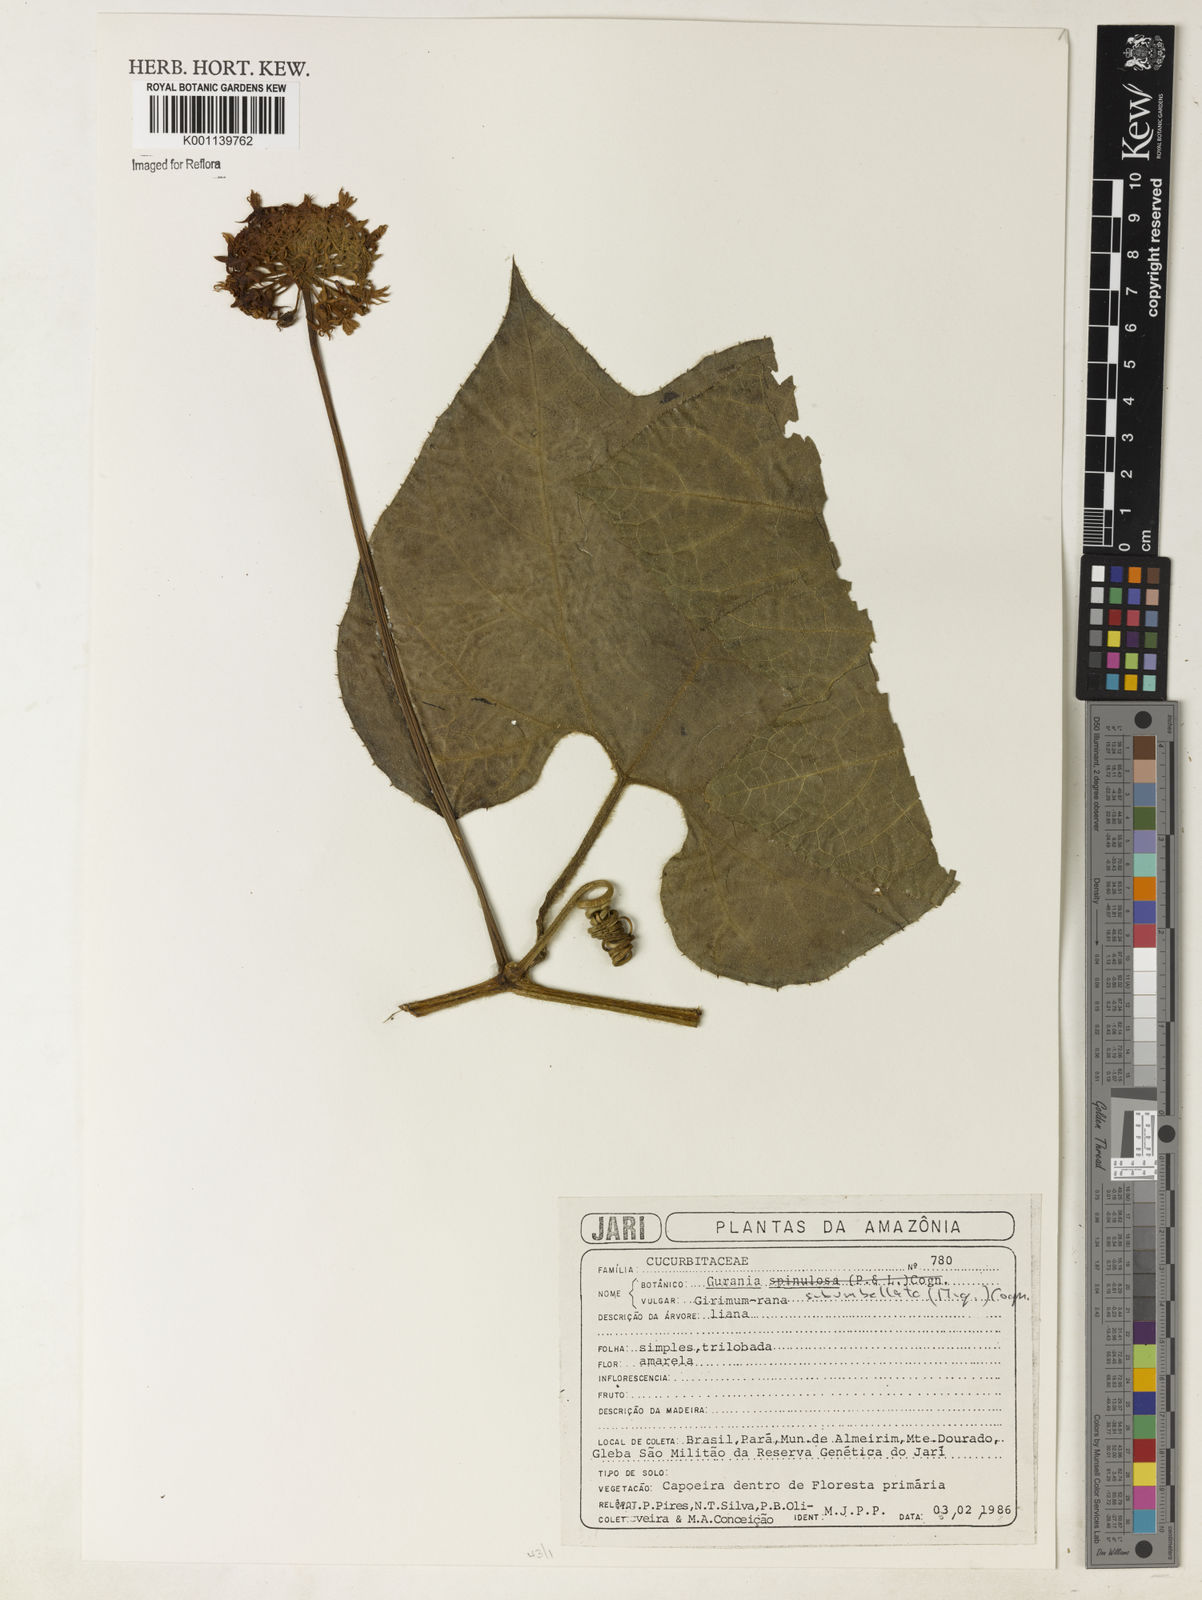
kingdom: Plantae
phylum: Tracheophyta
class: Magnoliopsida
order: Cucurbitales
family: Cucurbitaceae
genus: Gurania
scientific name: Gurania subumbellata
